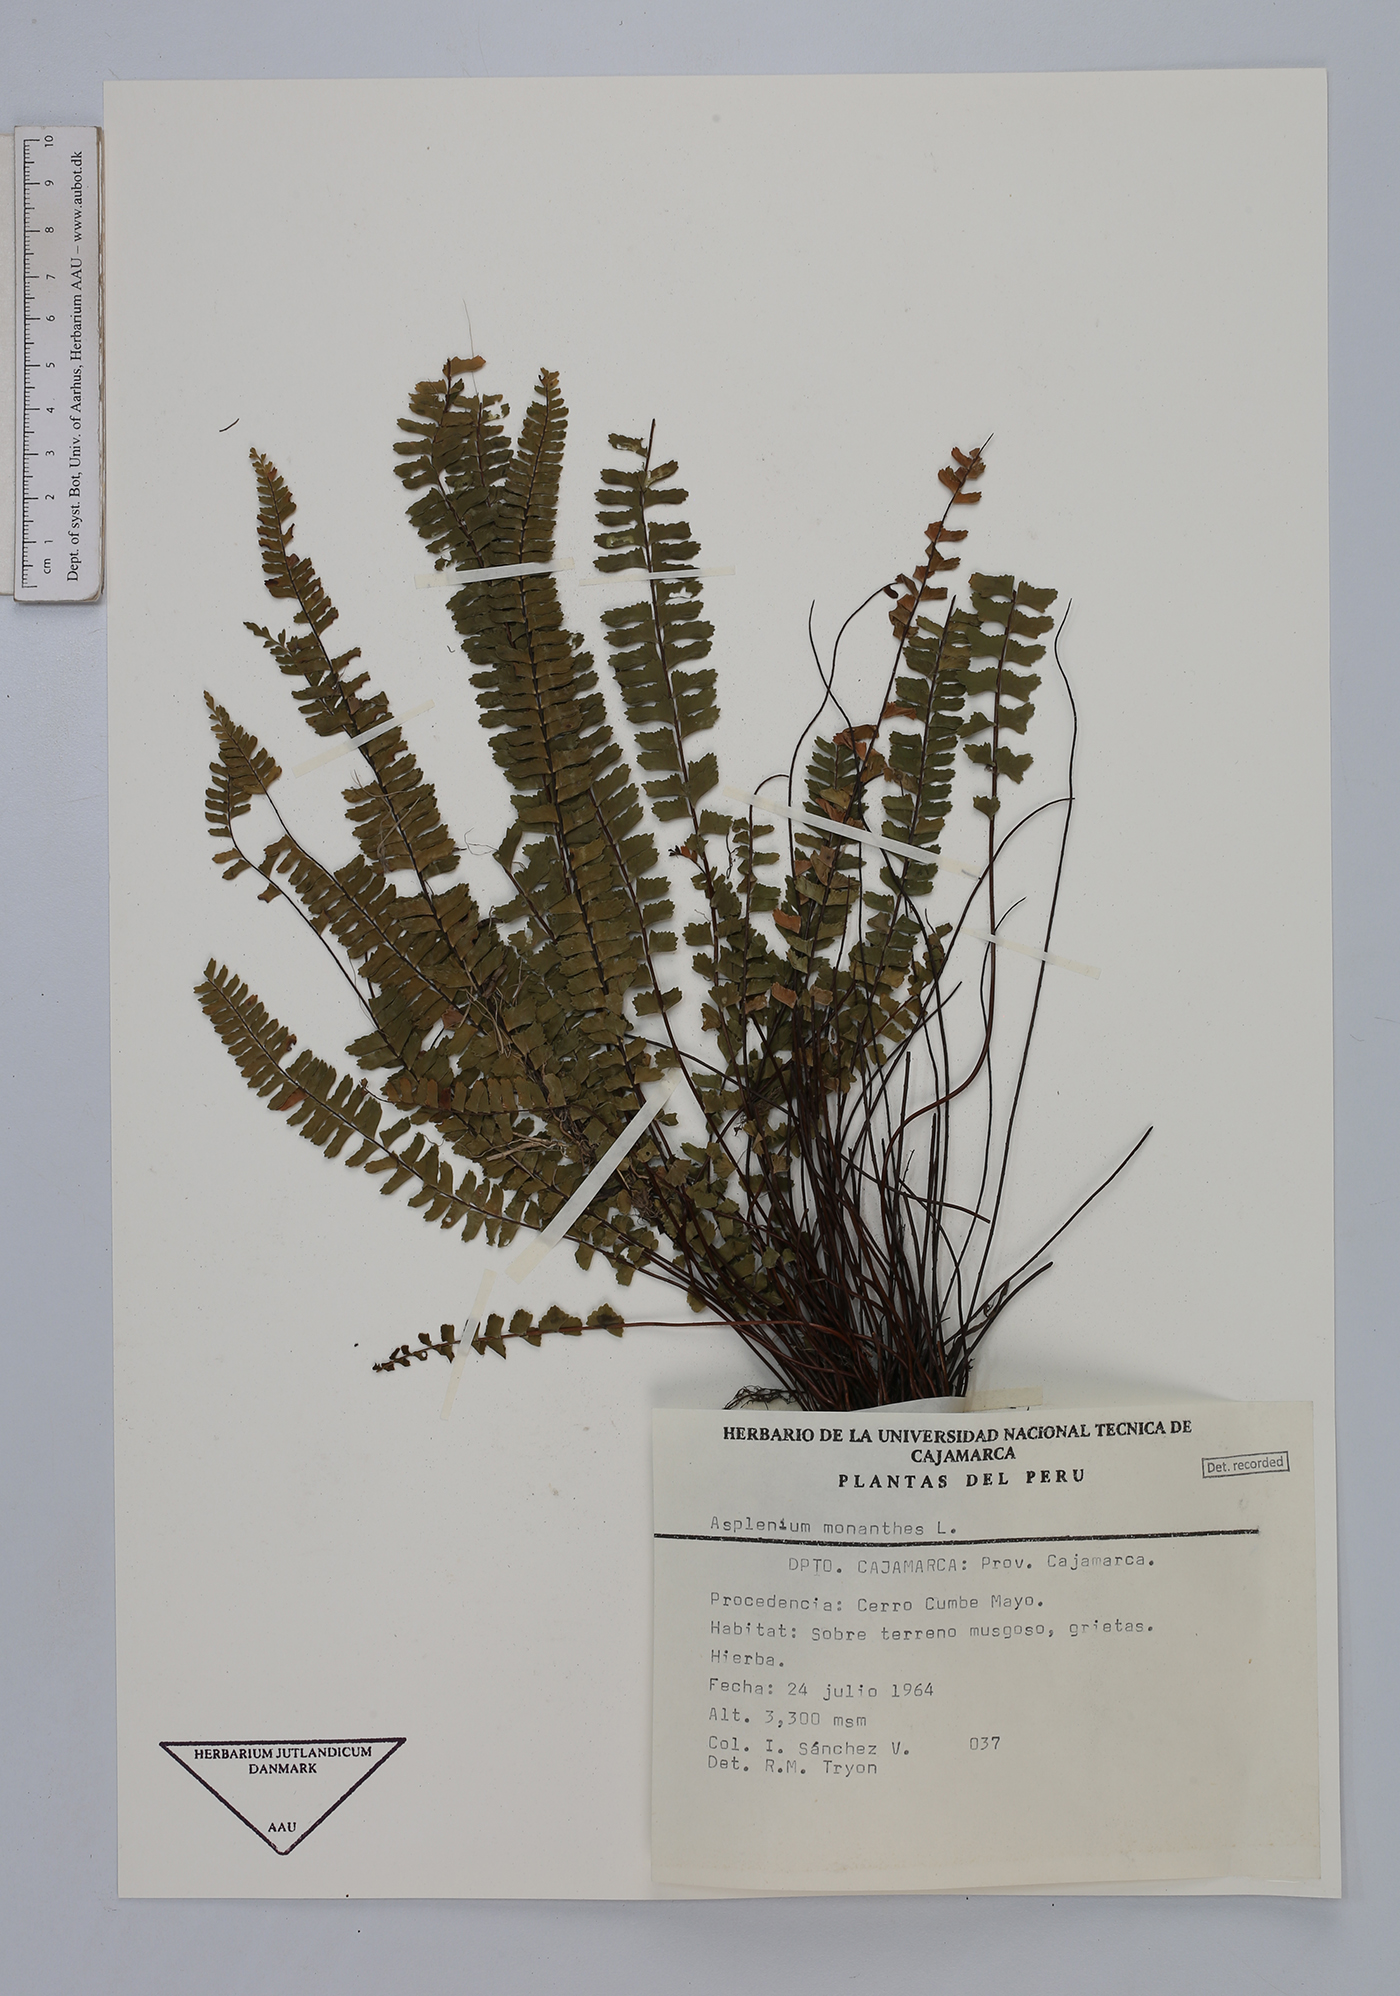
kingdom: Plantae
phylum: Tracheophyta
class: Polypodiopsida
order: Polypodiales
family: Aspleniaceae
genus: Asplenium
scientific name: Asplenium monanthes
